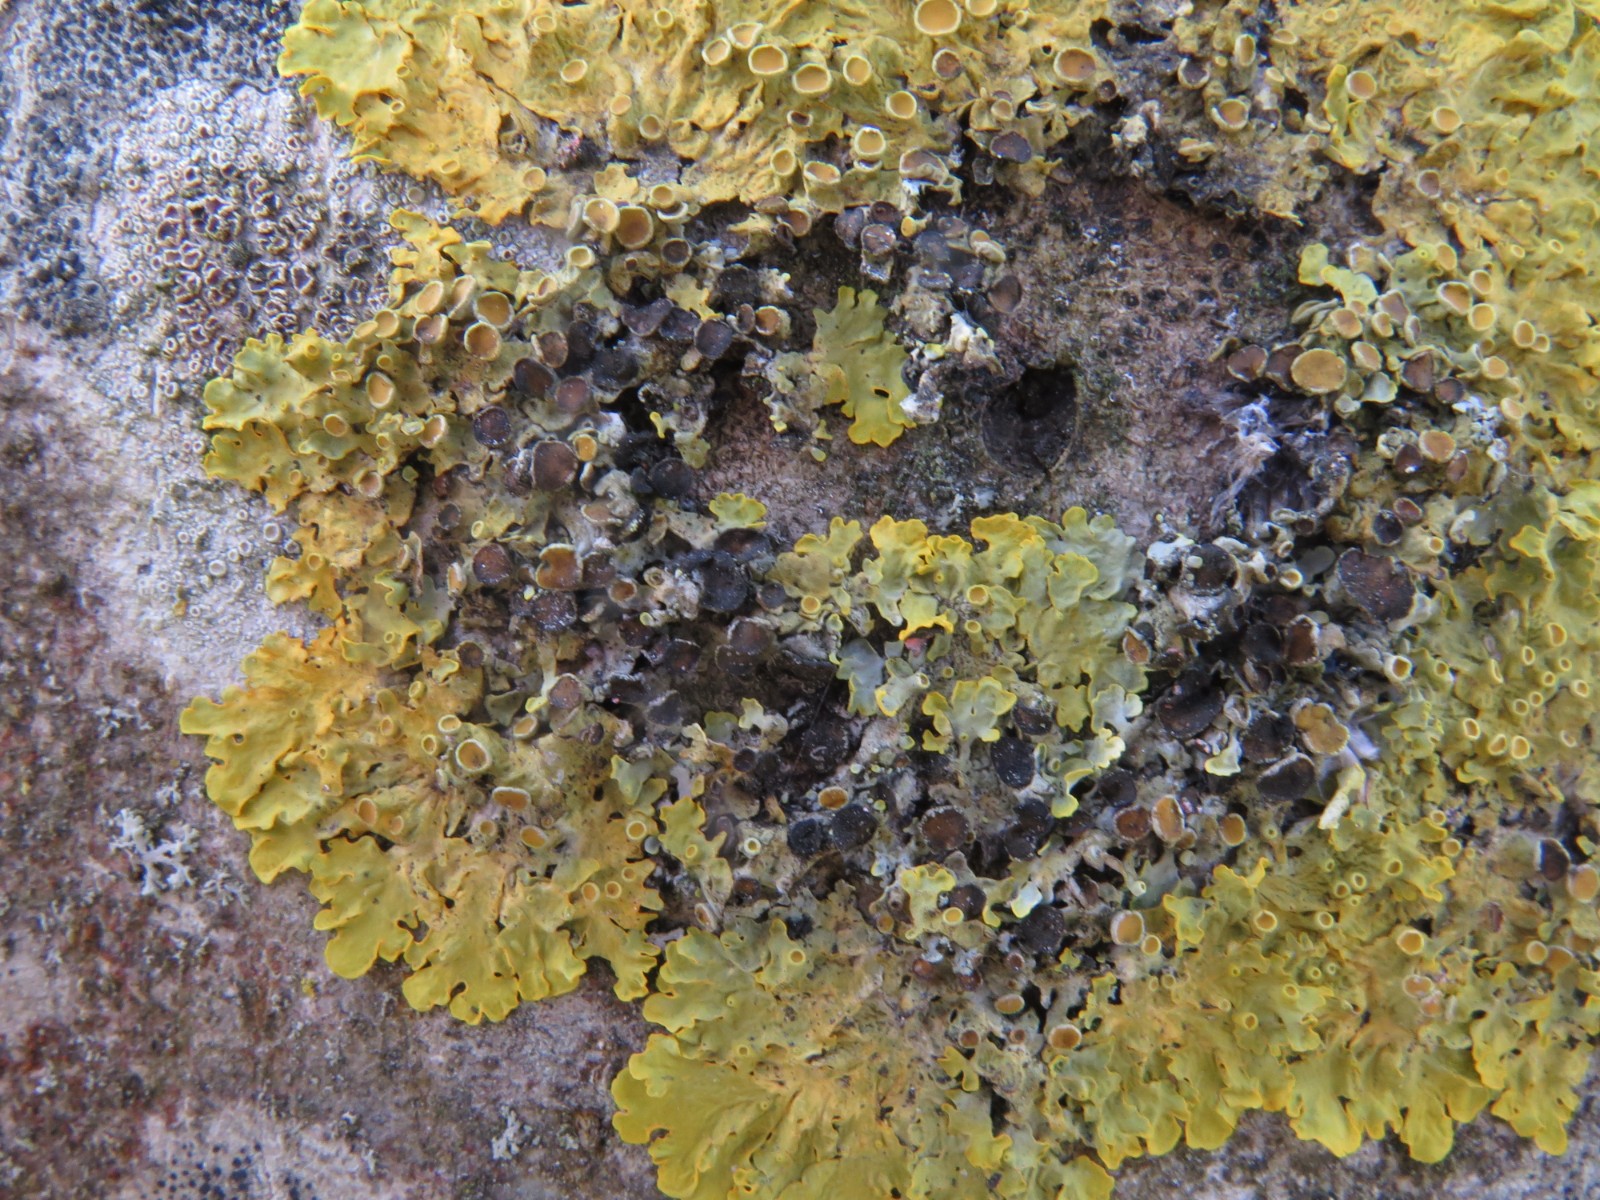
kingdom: Fungi
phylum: Ascomycota
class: Dothideomycetes
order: Mycosphaerellales
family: Teratosphaeriaceae
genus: Xanthoriicola
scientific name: Xanthoriicola physciae
